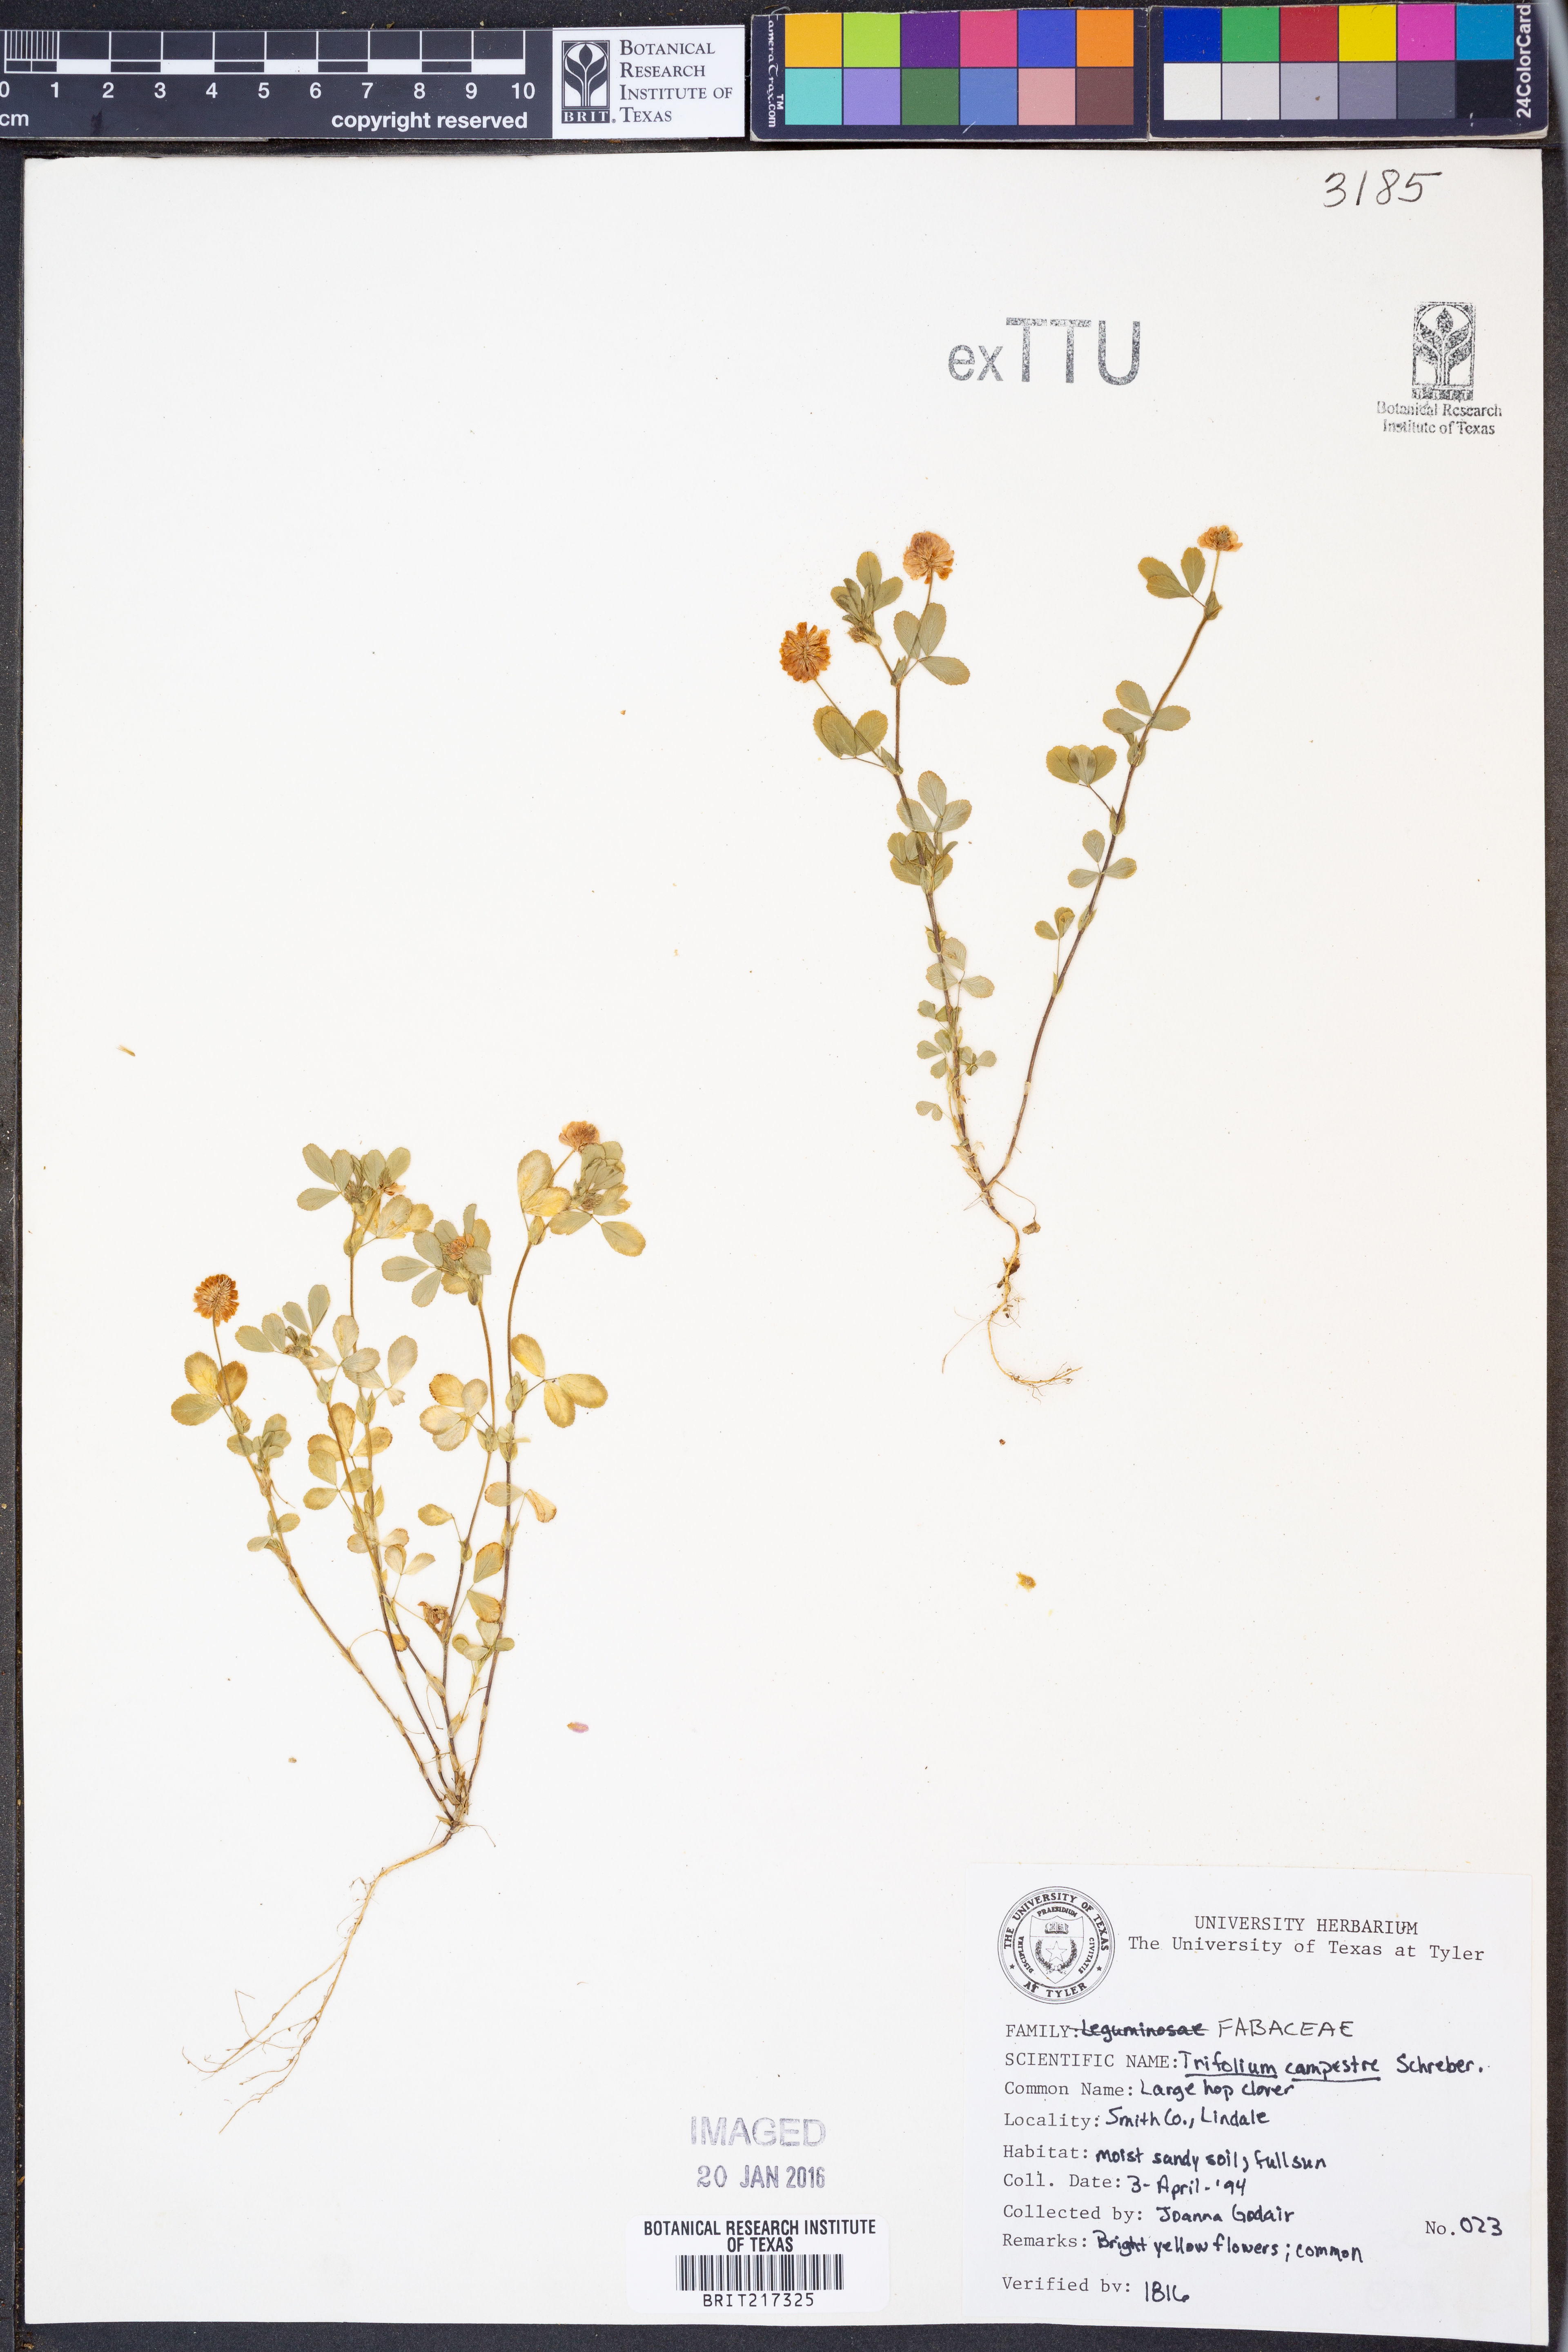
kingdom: Plantae
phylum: Tracheophyta
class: Magnoliopsida
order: Fabales
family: Fabaceae
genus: Trifolium
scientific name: Trifolium campestre
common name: Field clover
